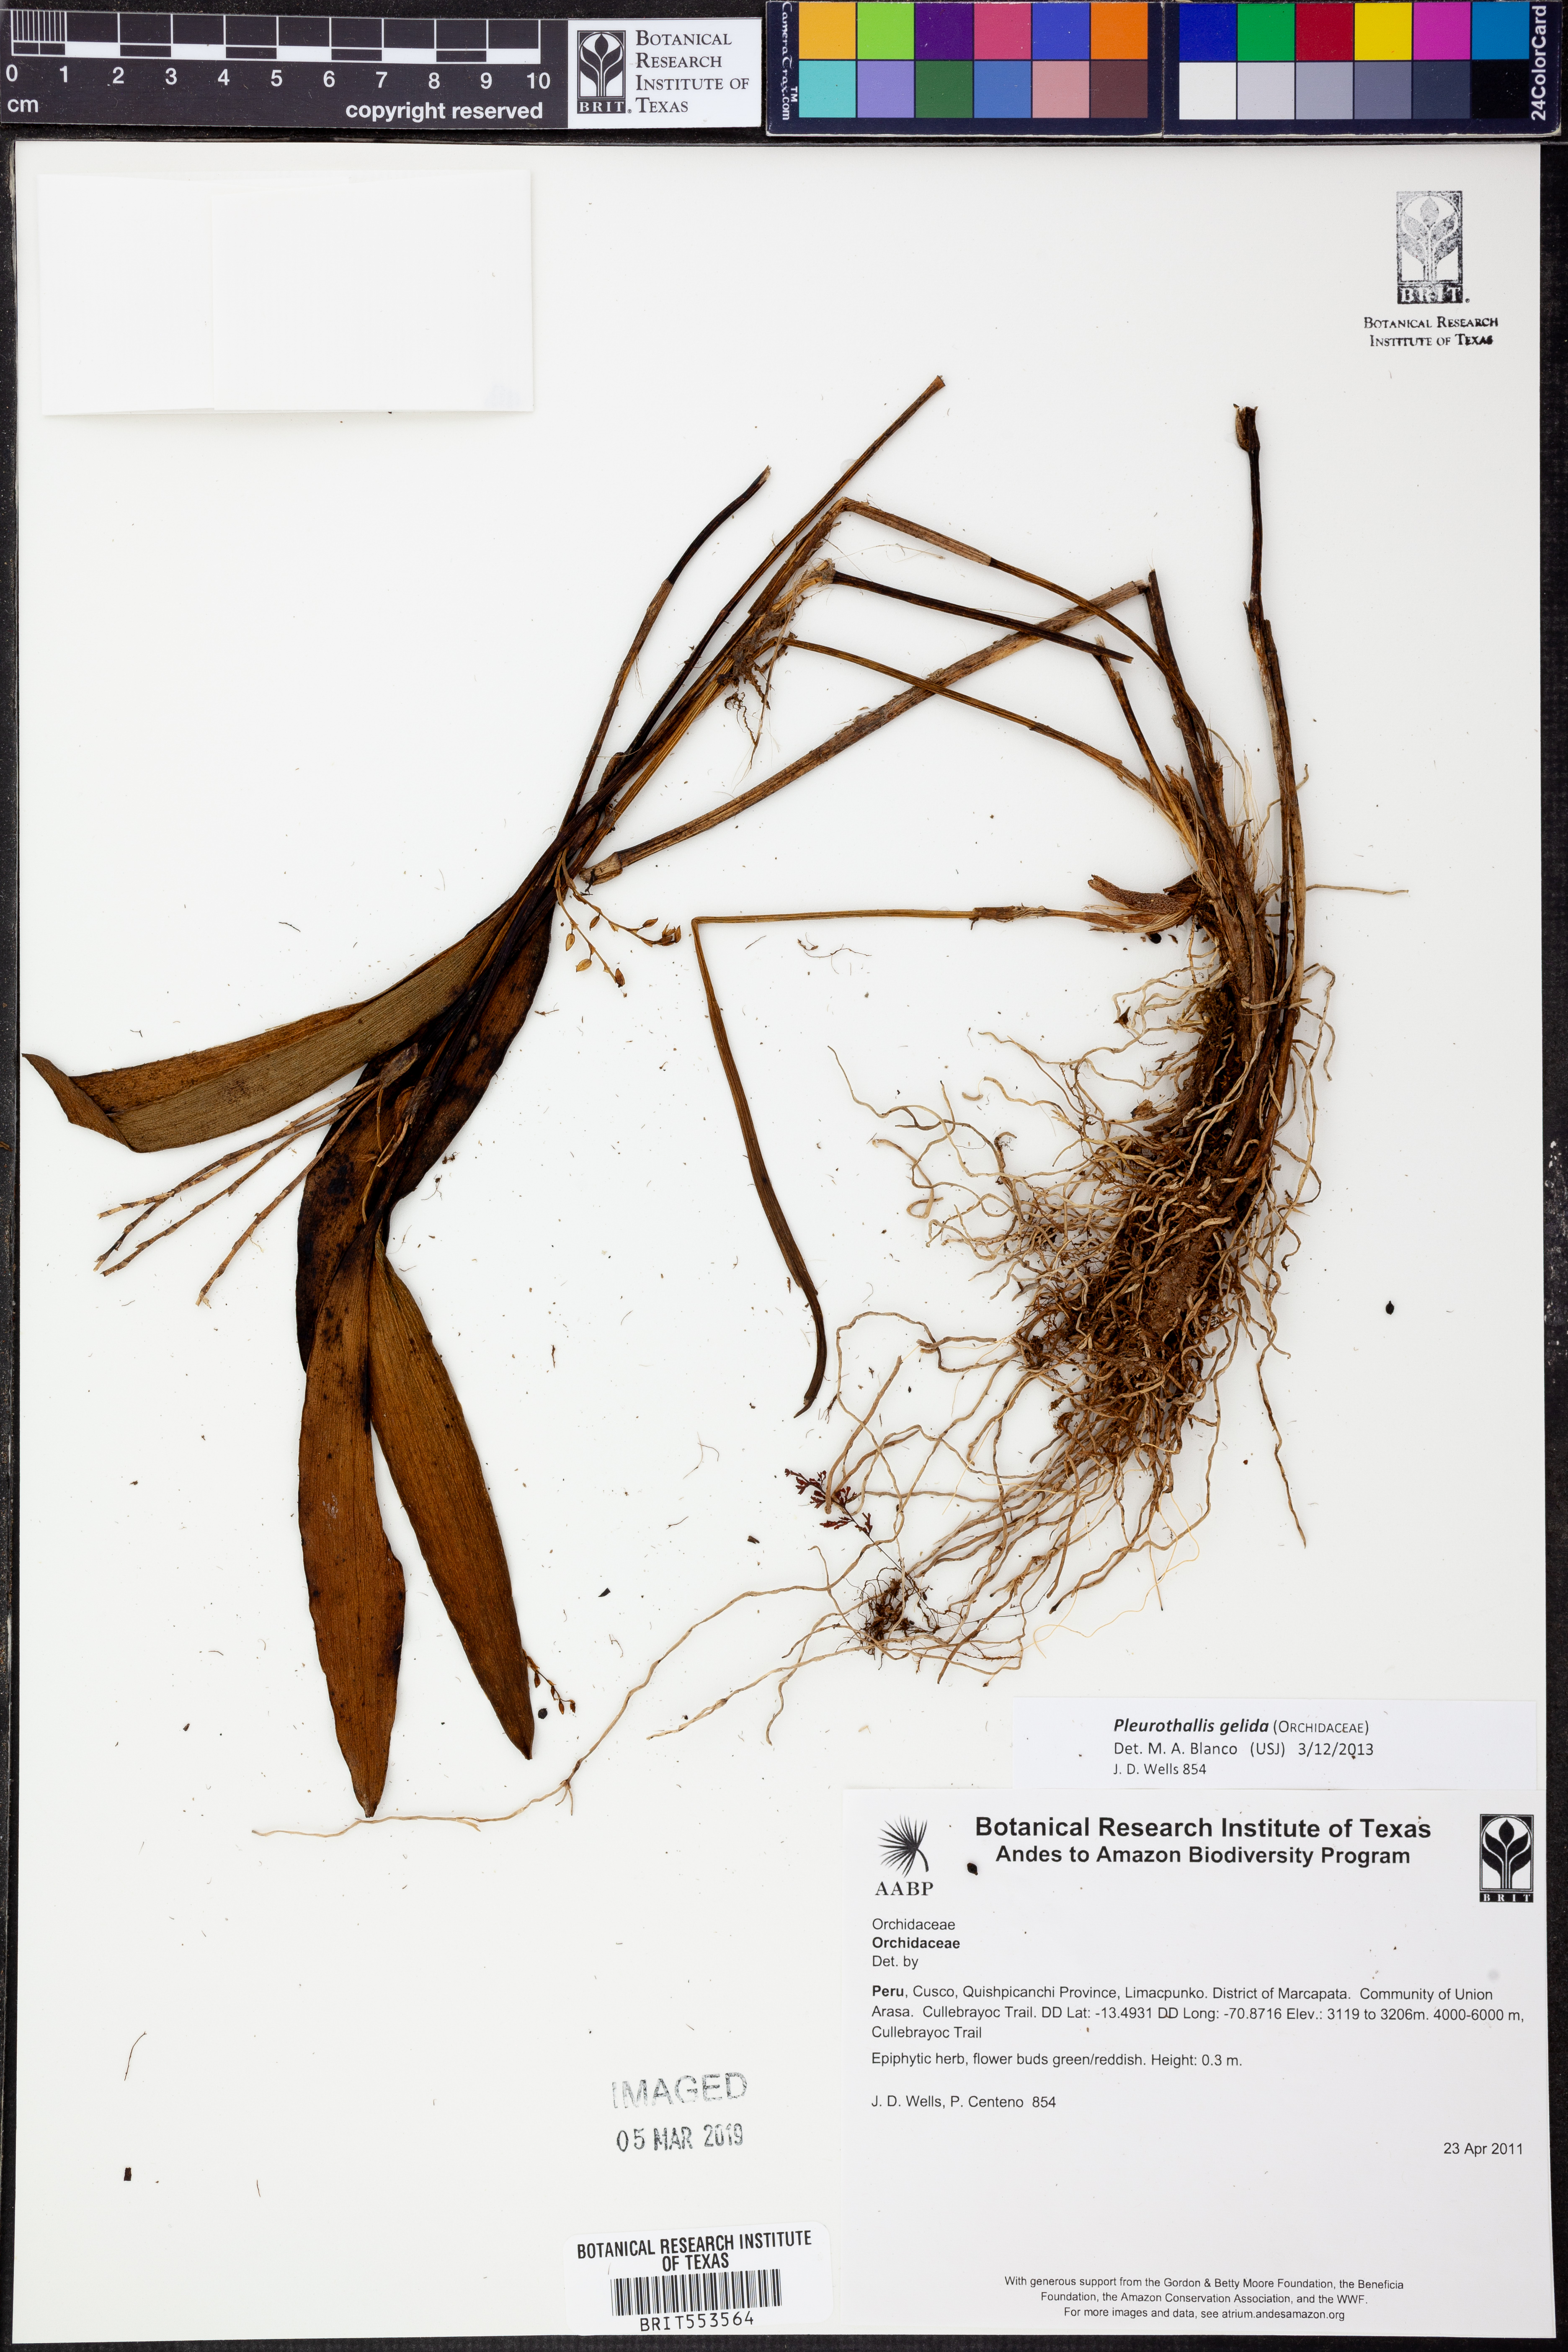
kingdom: Plantae
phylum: Tracheophyta
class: Liliopsida
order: Asparagales
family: Orchidaceae
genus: Stelis
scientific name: Stelis gelida
